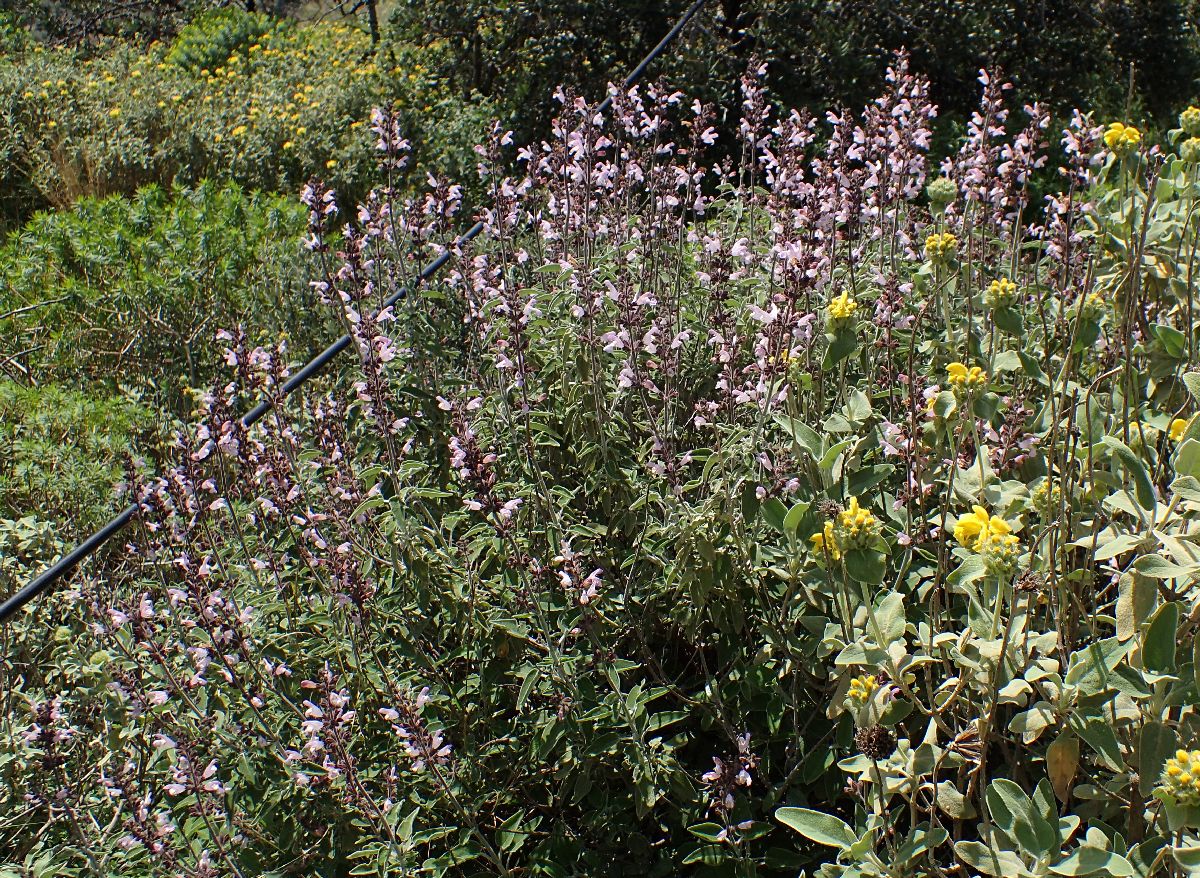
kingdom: Plantae
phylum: Tracheophyta
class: Magnoliopsida
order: Lamiales
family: Lamiaceae
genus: Salvia
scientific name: Salvia fruticosa
